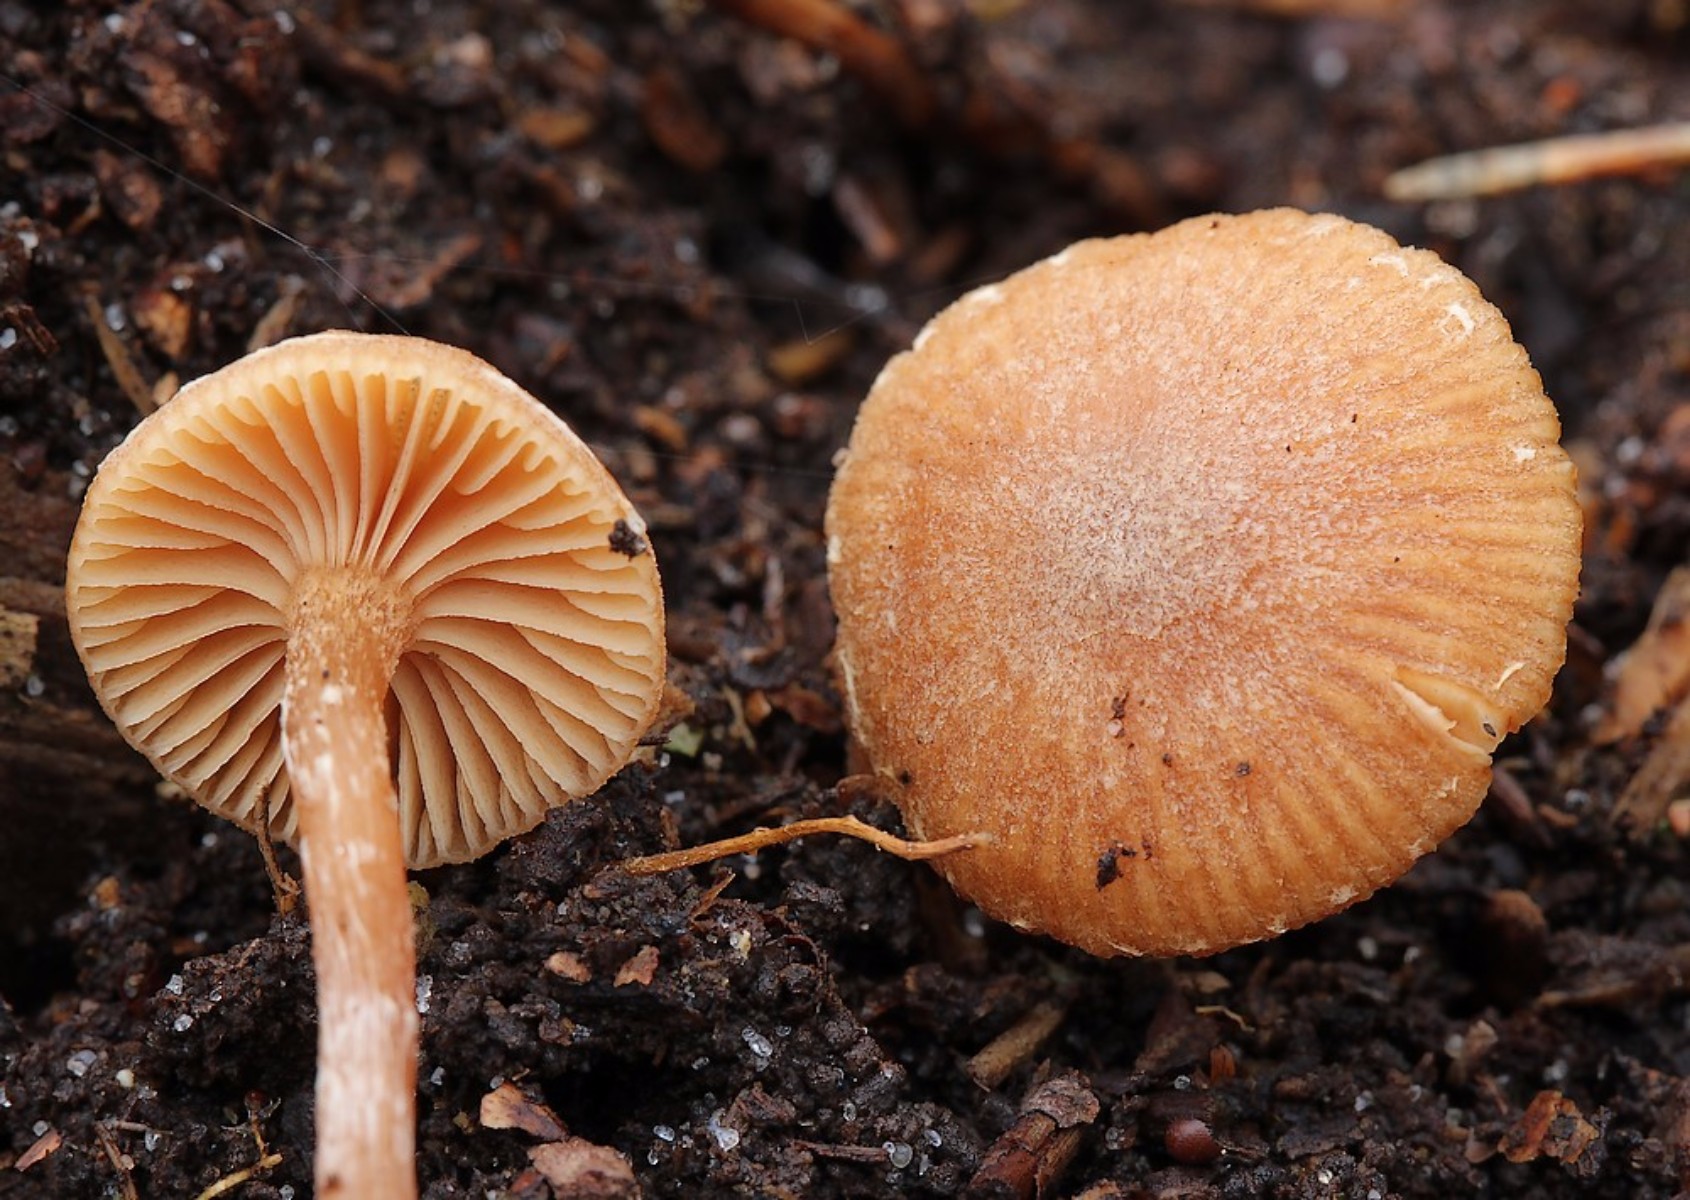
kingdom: Fungi
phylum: Basidiomycota
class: Agaricomycetes
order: Agaricales
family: Tubariaceae
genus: Tubaria
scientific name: Tubaria furfuracea
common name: kliddet fnughat
